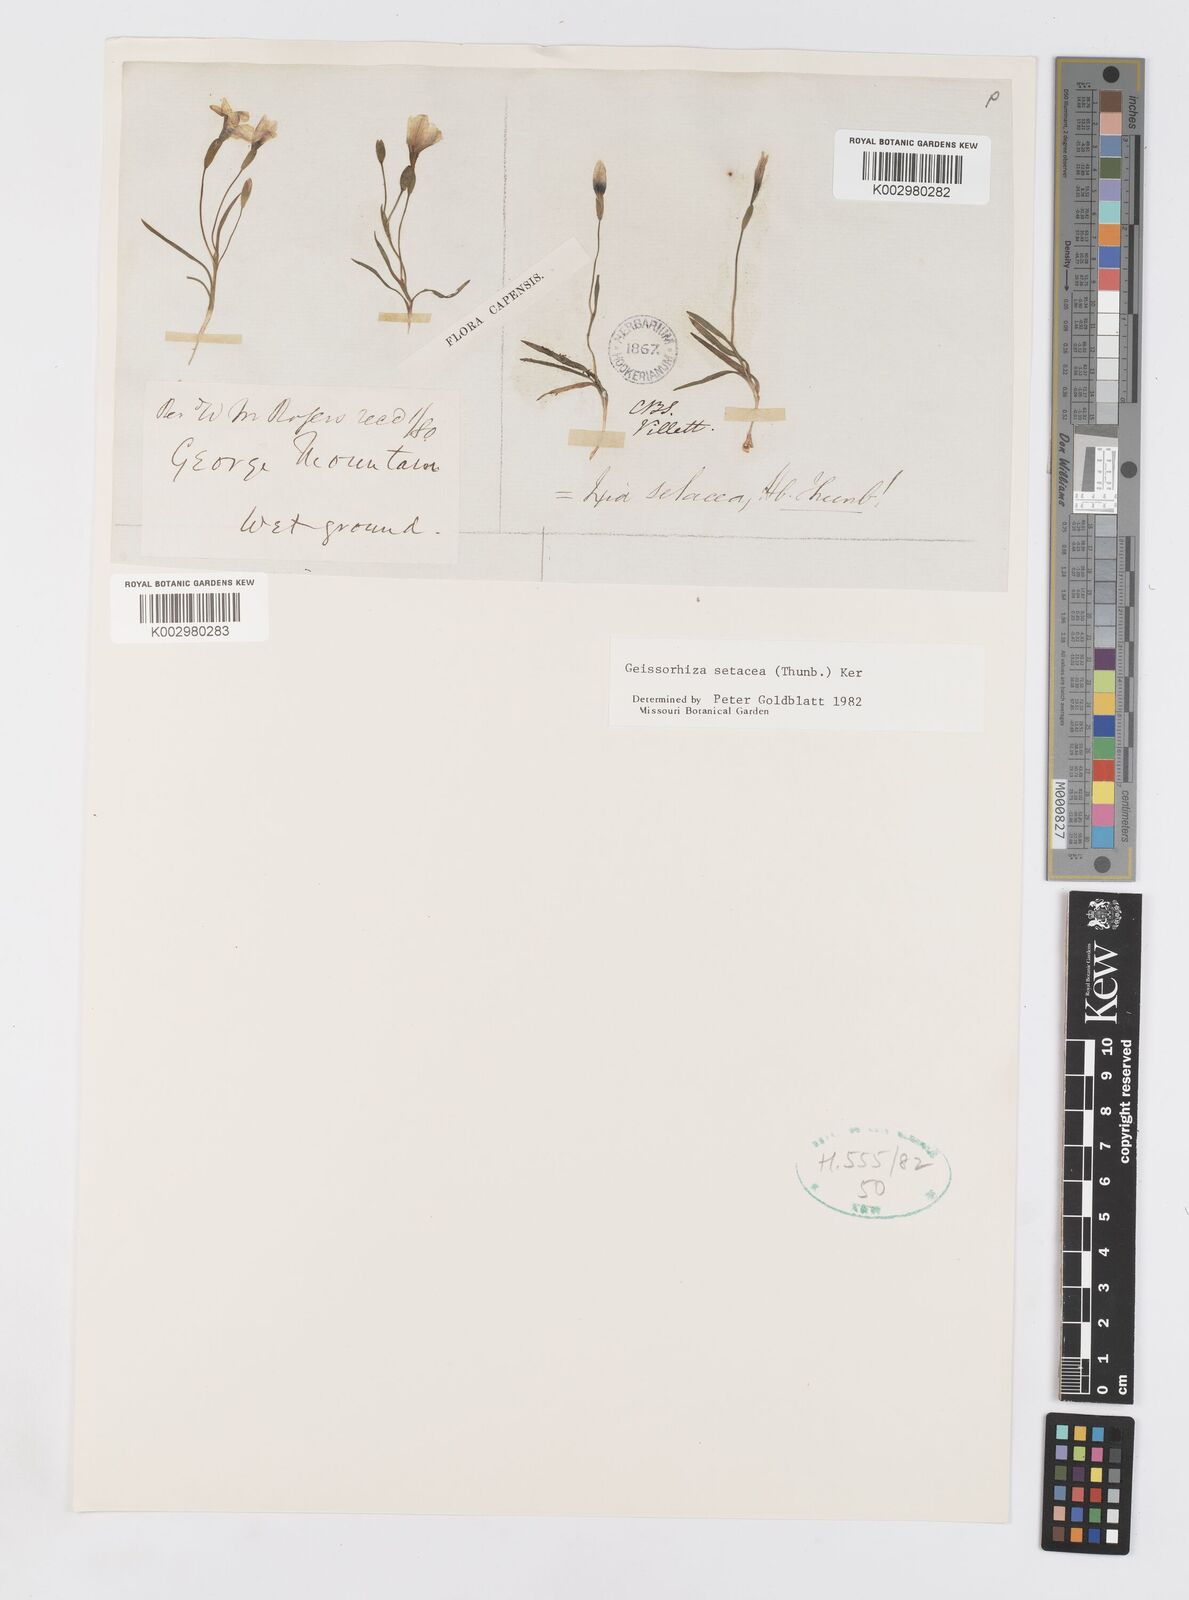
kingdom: Plantae
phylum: Tracheophyta
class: Liliopsida
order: Asparagales
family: Iridaceae
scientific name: Iridaceae
